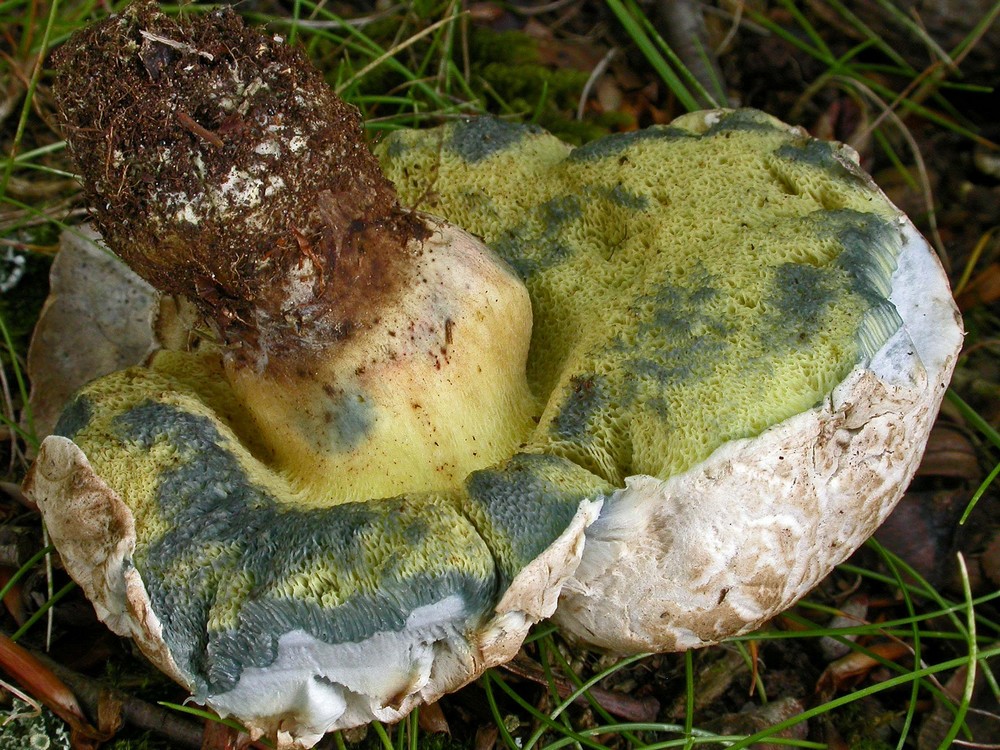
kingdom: Fungi
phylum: Basidiomycota
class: Agaricomycetes
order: Boletales
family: Boletaceae
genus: Caloboletus
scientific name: Caloboletus radicans
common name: rod-rørhat
